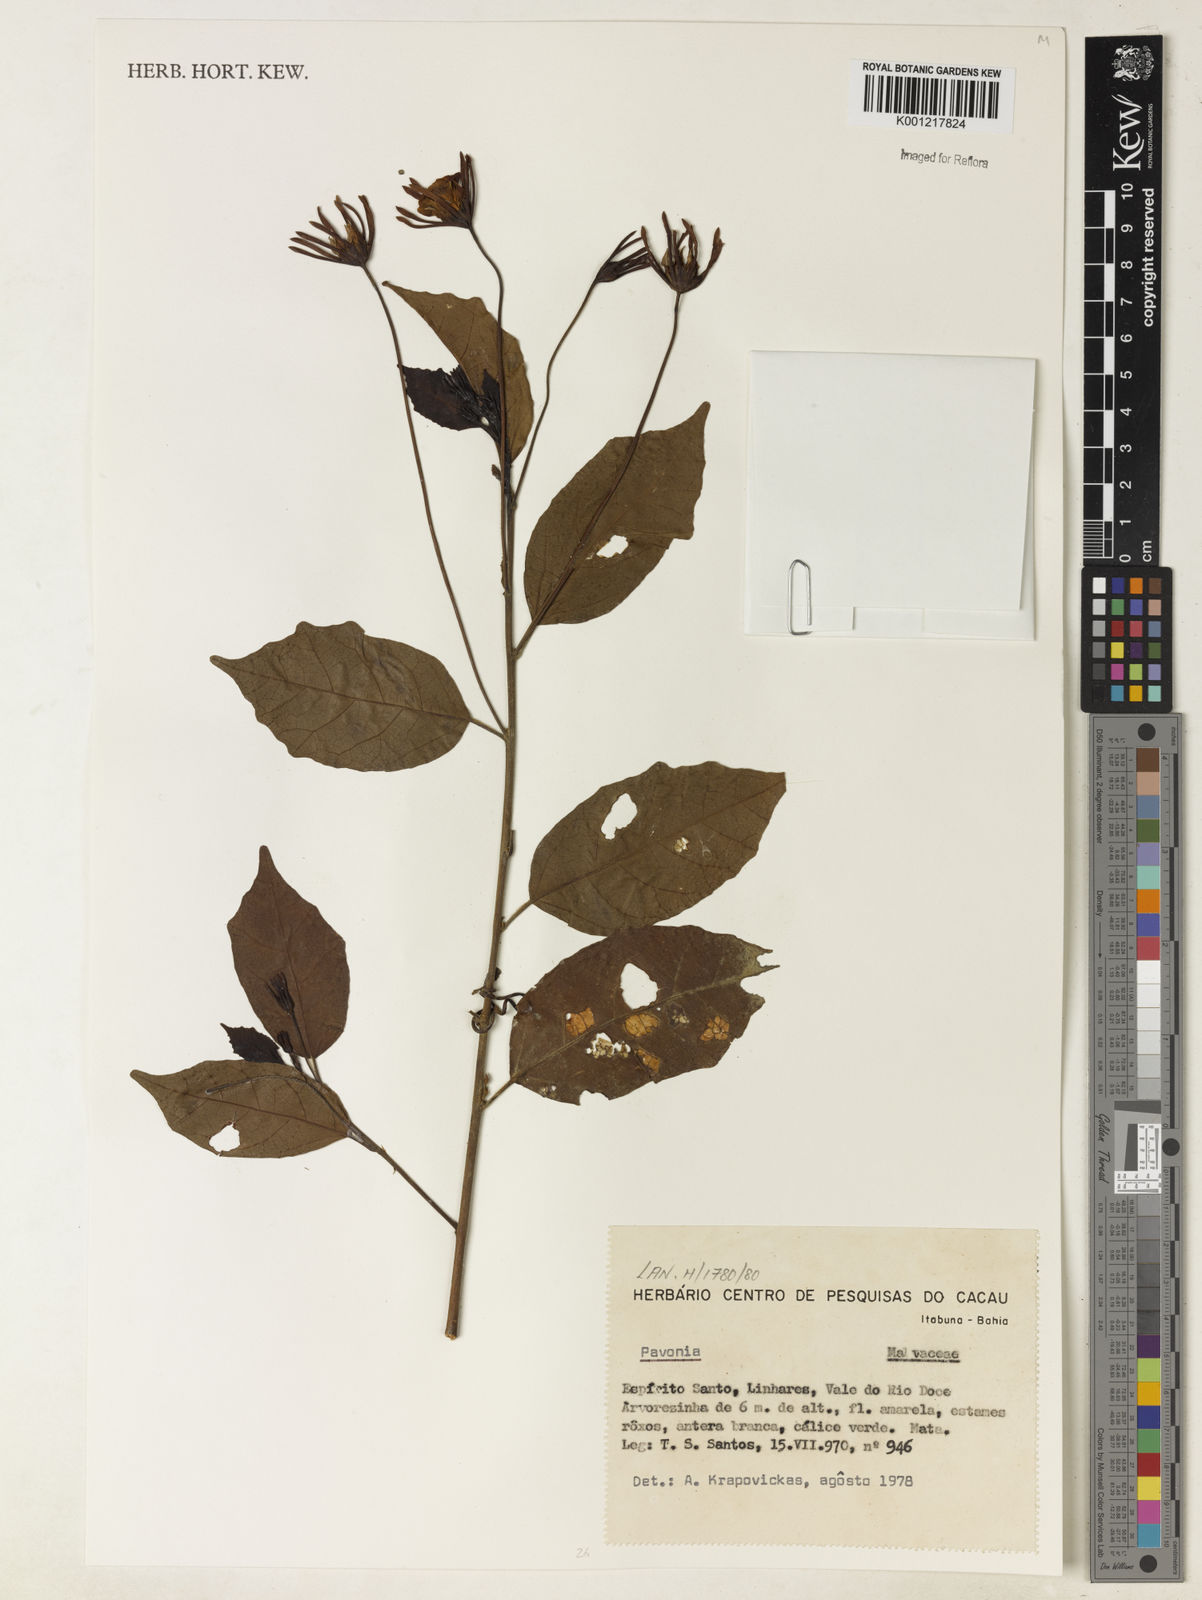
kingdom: Plantae
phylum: Tracheophyta
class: Magnoliopsida
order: Malvales
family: Malvaceae
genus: Pavonia
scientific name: Pavonia
